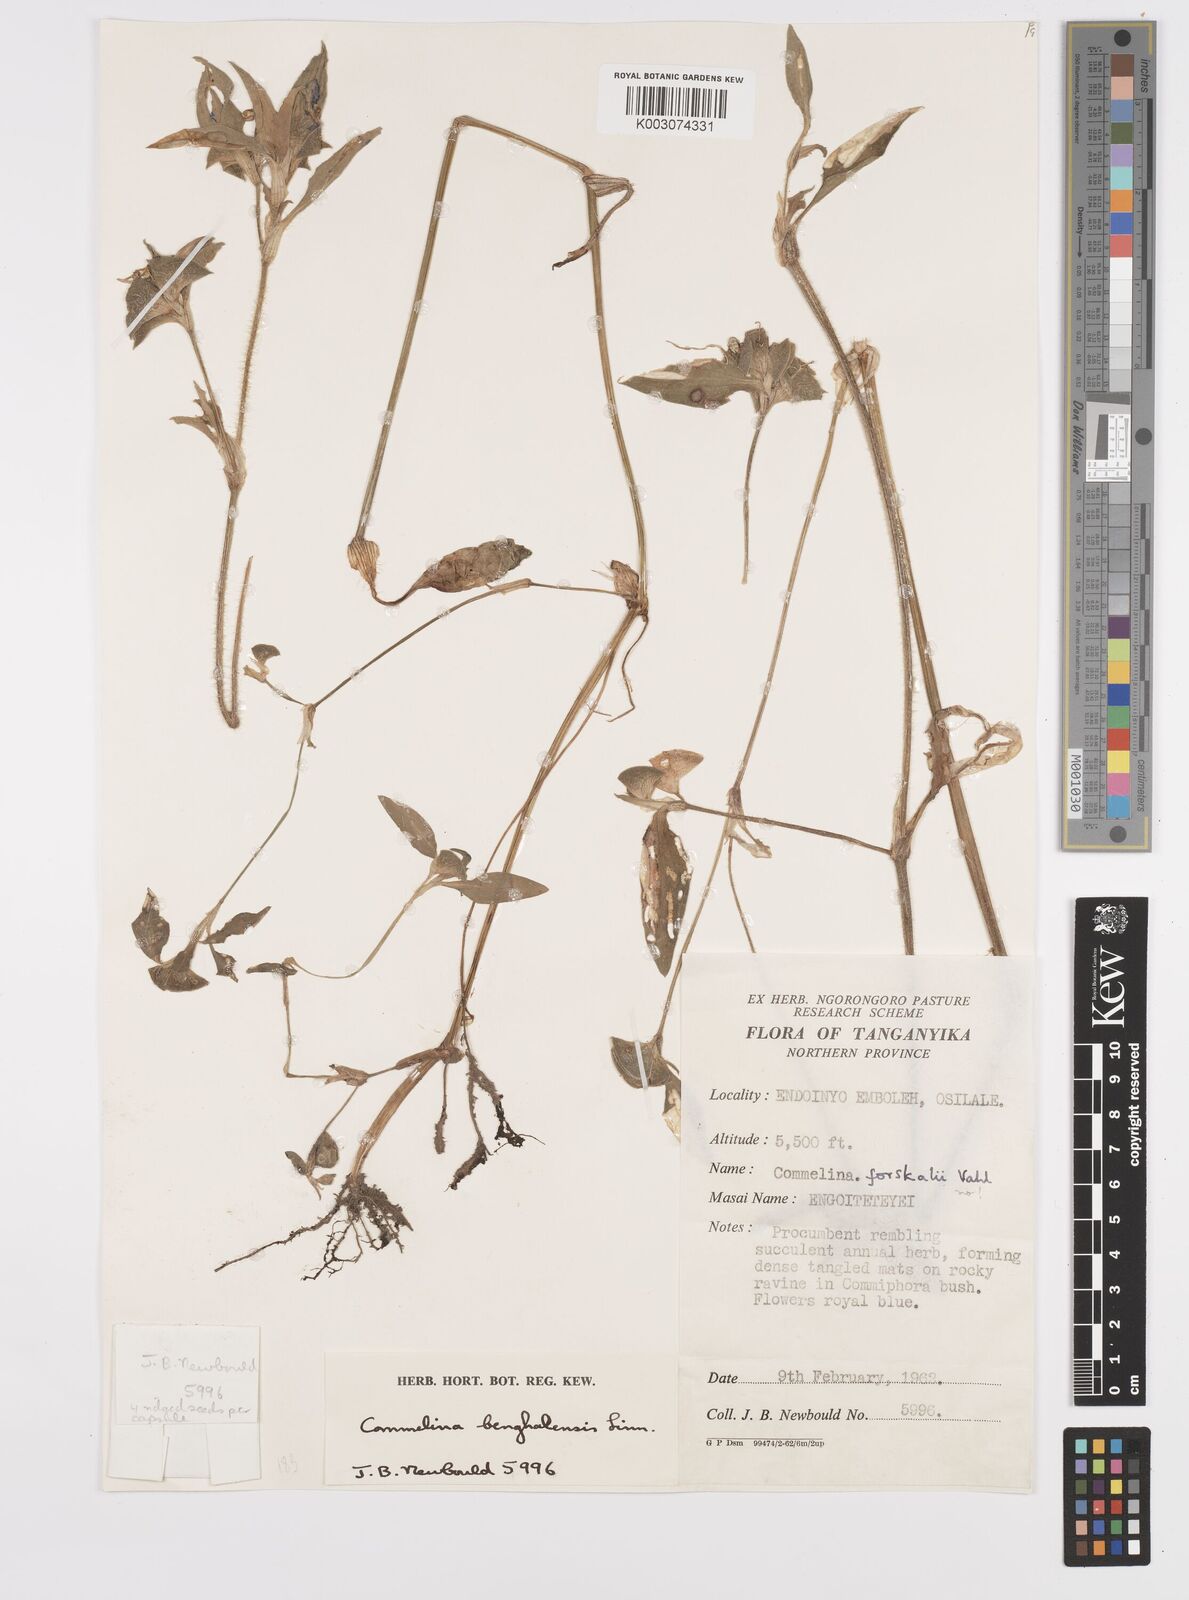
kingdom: Plantae
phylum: Tracheophyta
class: Liliopsida
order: Commelinales
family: Commelinaceae
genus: Commelina
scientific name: Commelina benghalensis
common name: Jio
